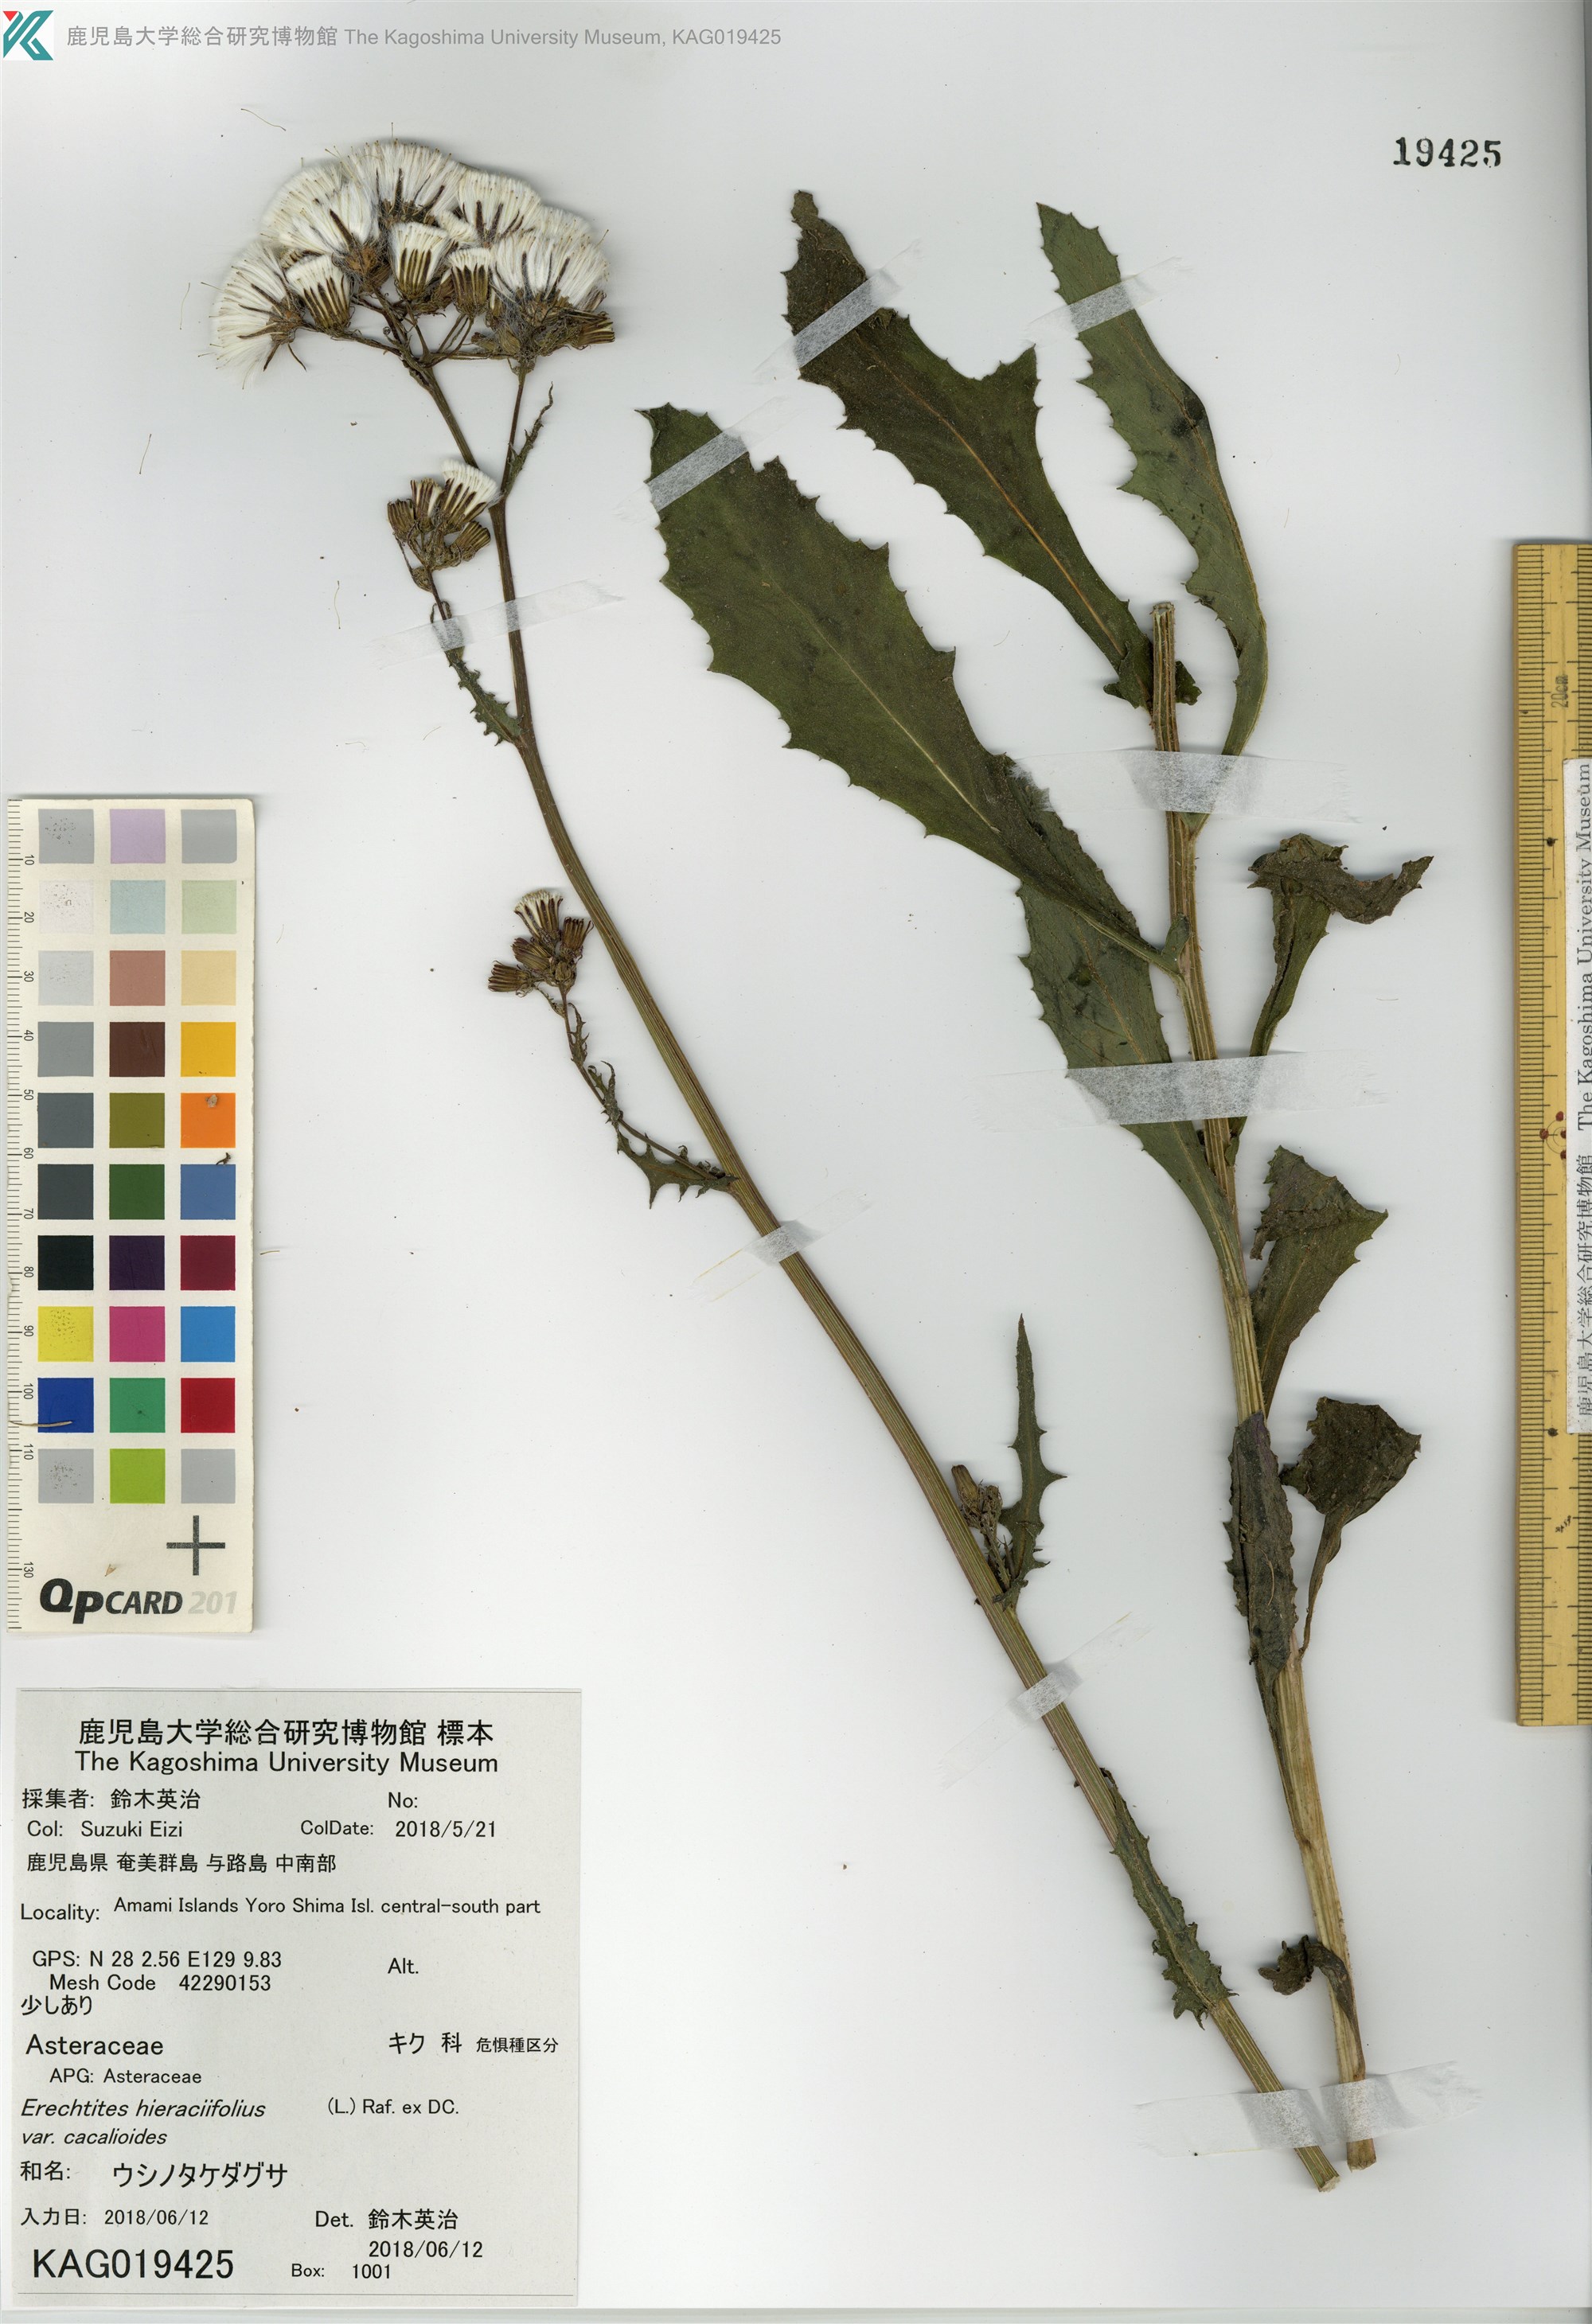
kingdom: Plantae
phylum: Tracheophyta
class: Magnoliopsida
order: Asterales
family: Asteraceae
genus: Erechtites
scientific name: Erechtites hieraciifolius
